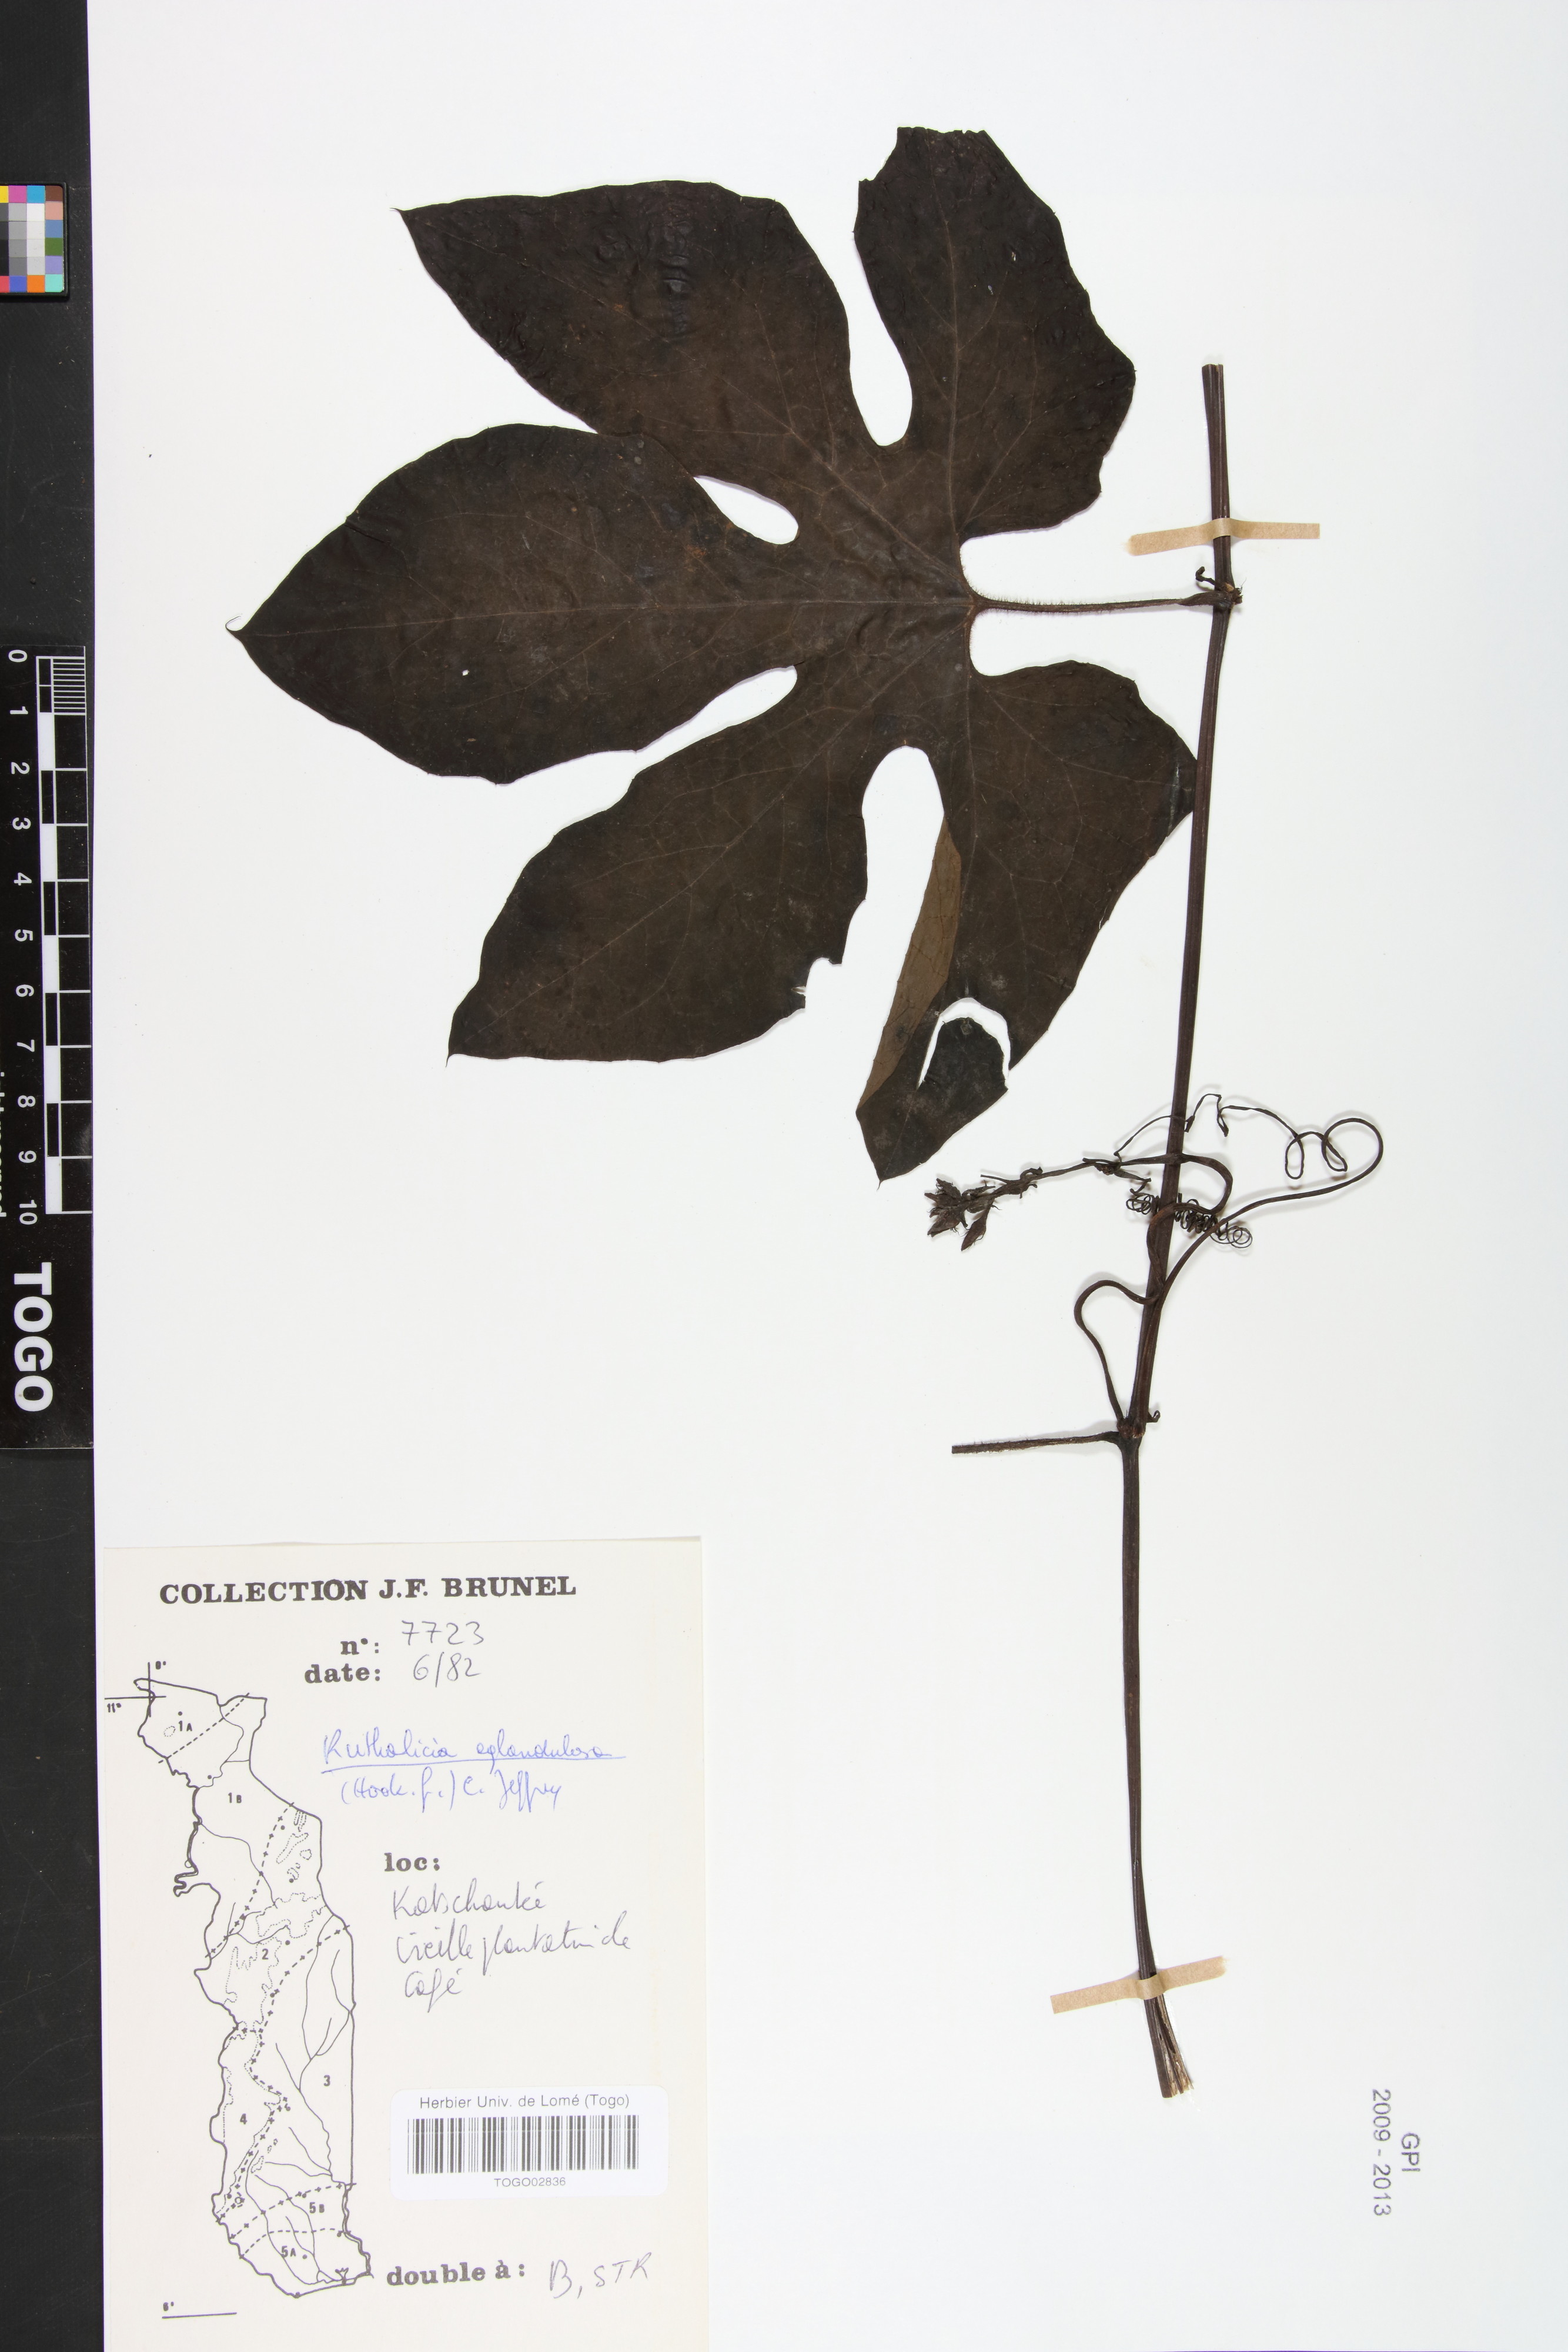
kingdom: Plantae
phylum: Tracheophyta
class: Magnoliopsida
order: Cucurbitales
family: Cucurbitaceae
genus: Ruthalicia
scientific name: Ruthalicia eglandulosa
